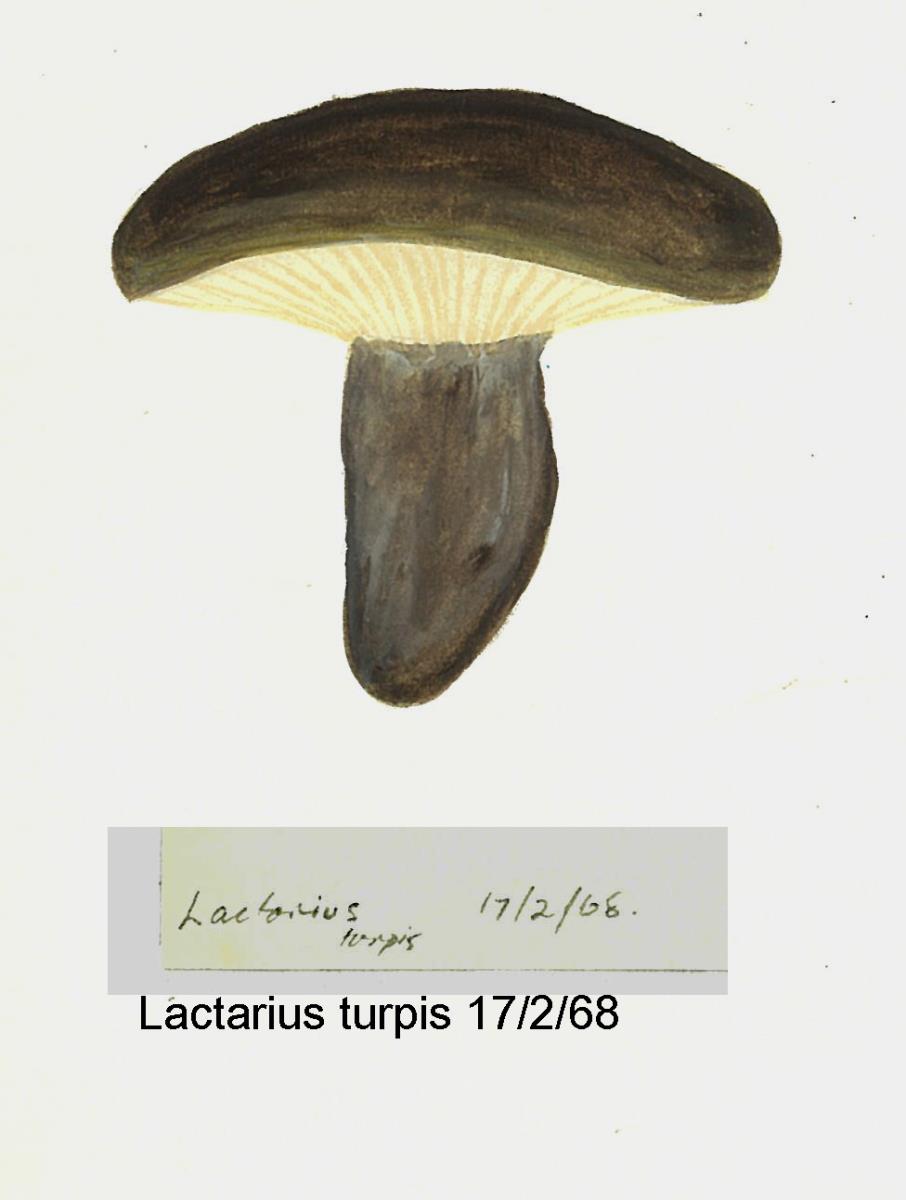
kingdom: Fungi
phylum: Basidiomycota
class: Agaricomycetes
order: Russulales
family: Russulaceae
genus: Lactarius
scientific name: Lactarius turpis
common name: Ugly milk-cap
